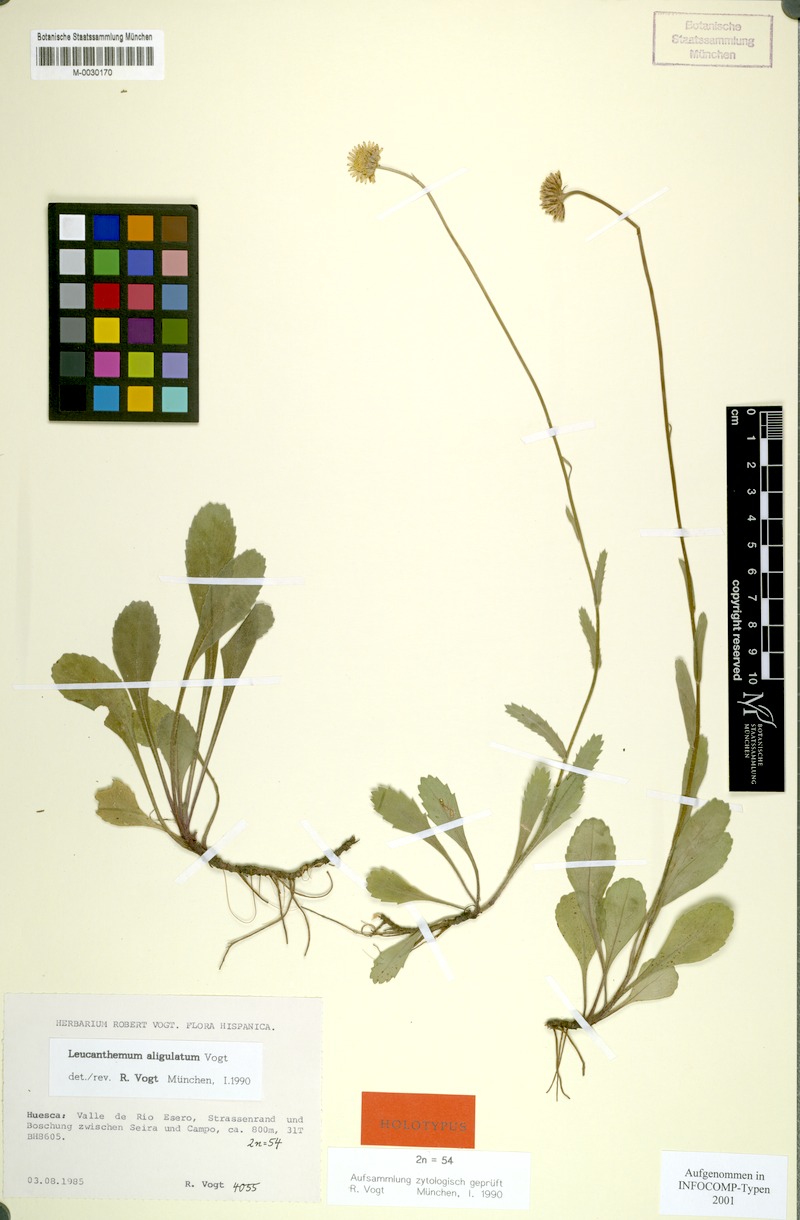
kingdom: Plantae
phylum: Tracheophyta
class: Magnoliopsida
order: Asterales
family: Asteraceae
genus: Leucanthemum
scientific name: Leucanthemum aligulatum
